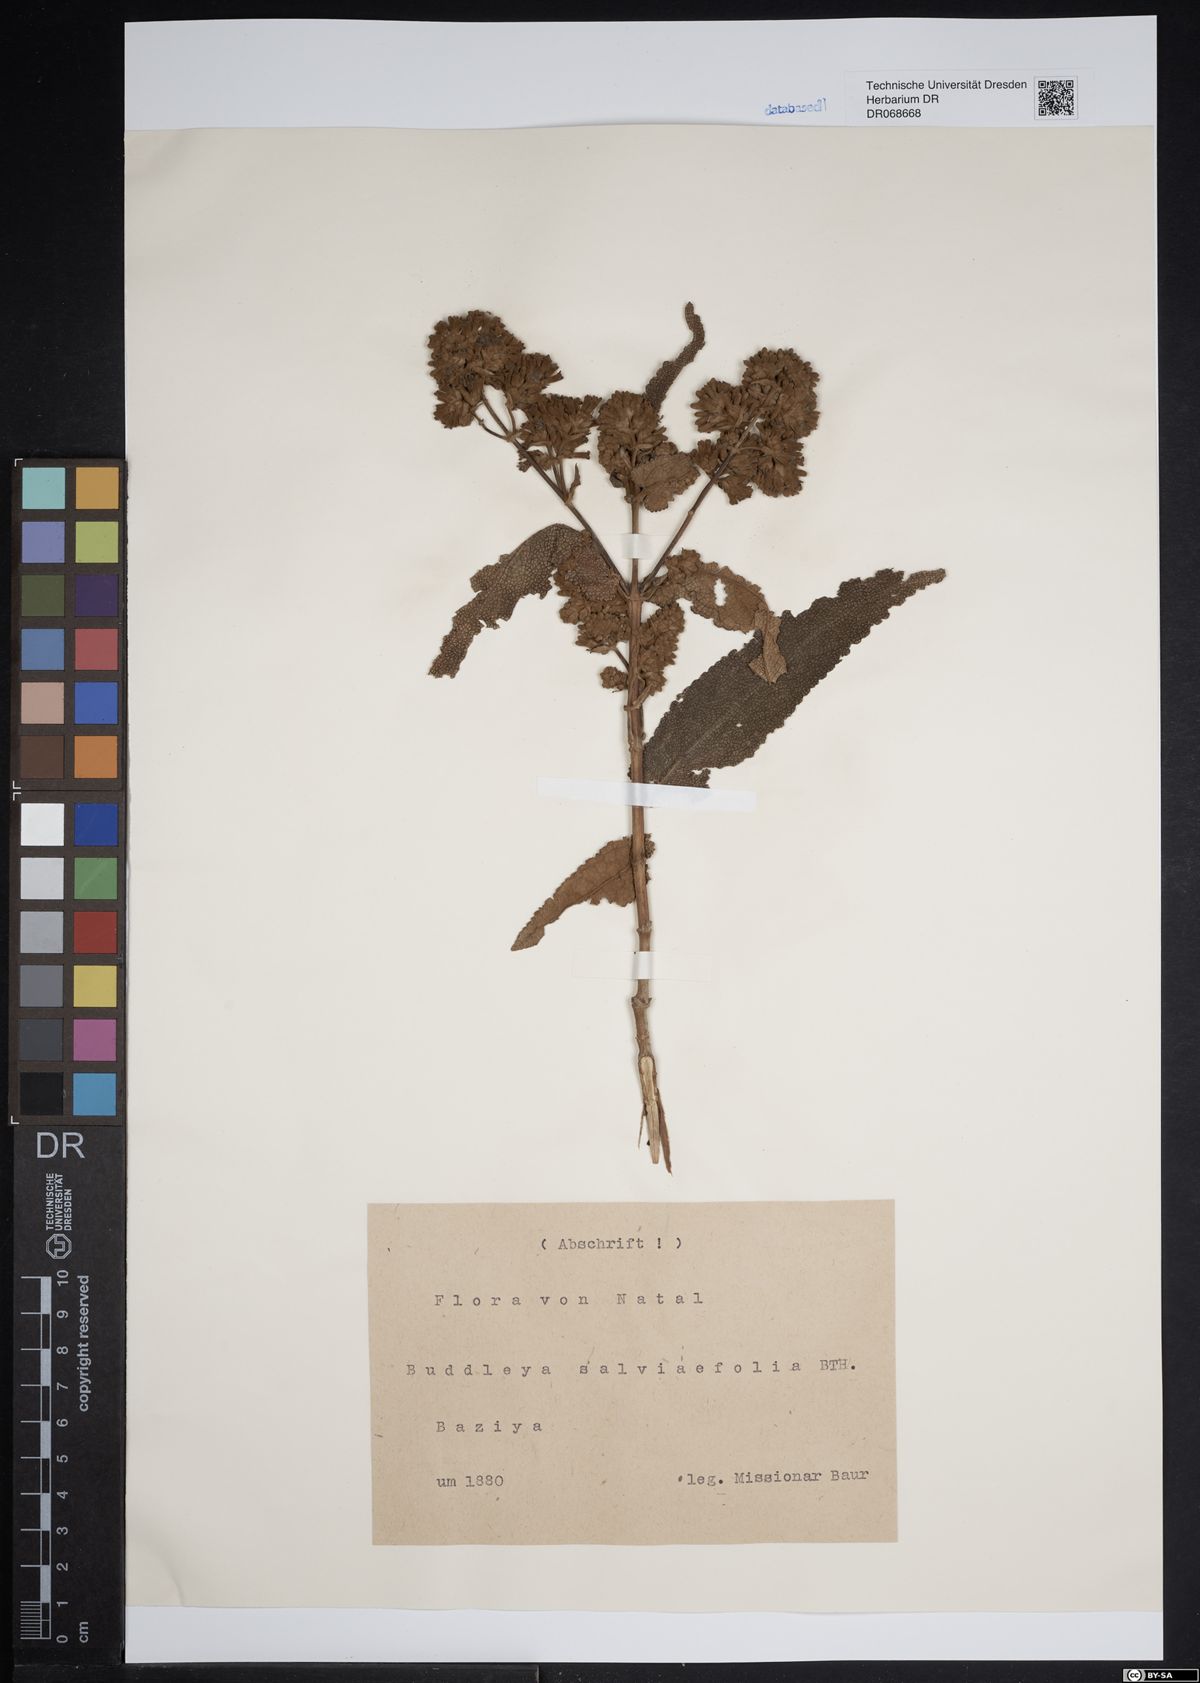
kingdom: Plantae
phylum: Tracheophyta
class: Magnoliopsida
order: Lamiales
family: Scrophulariaceae
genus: Buddleja
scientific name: Buddleja salviifolia
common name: Sagewood
